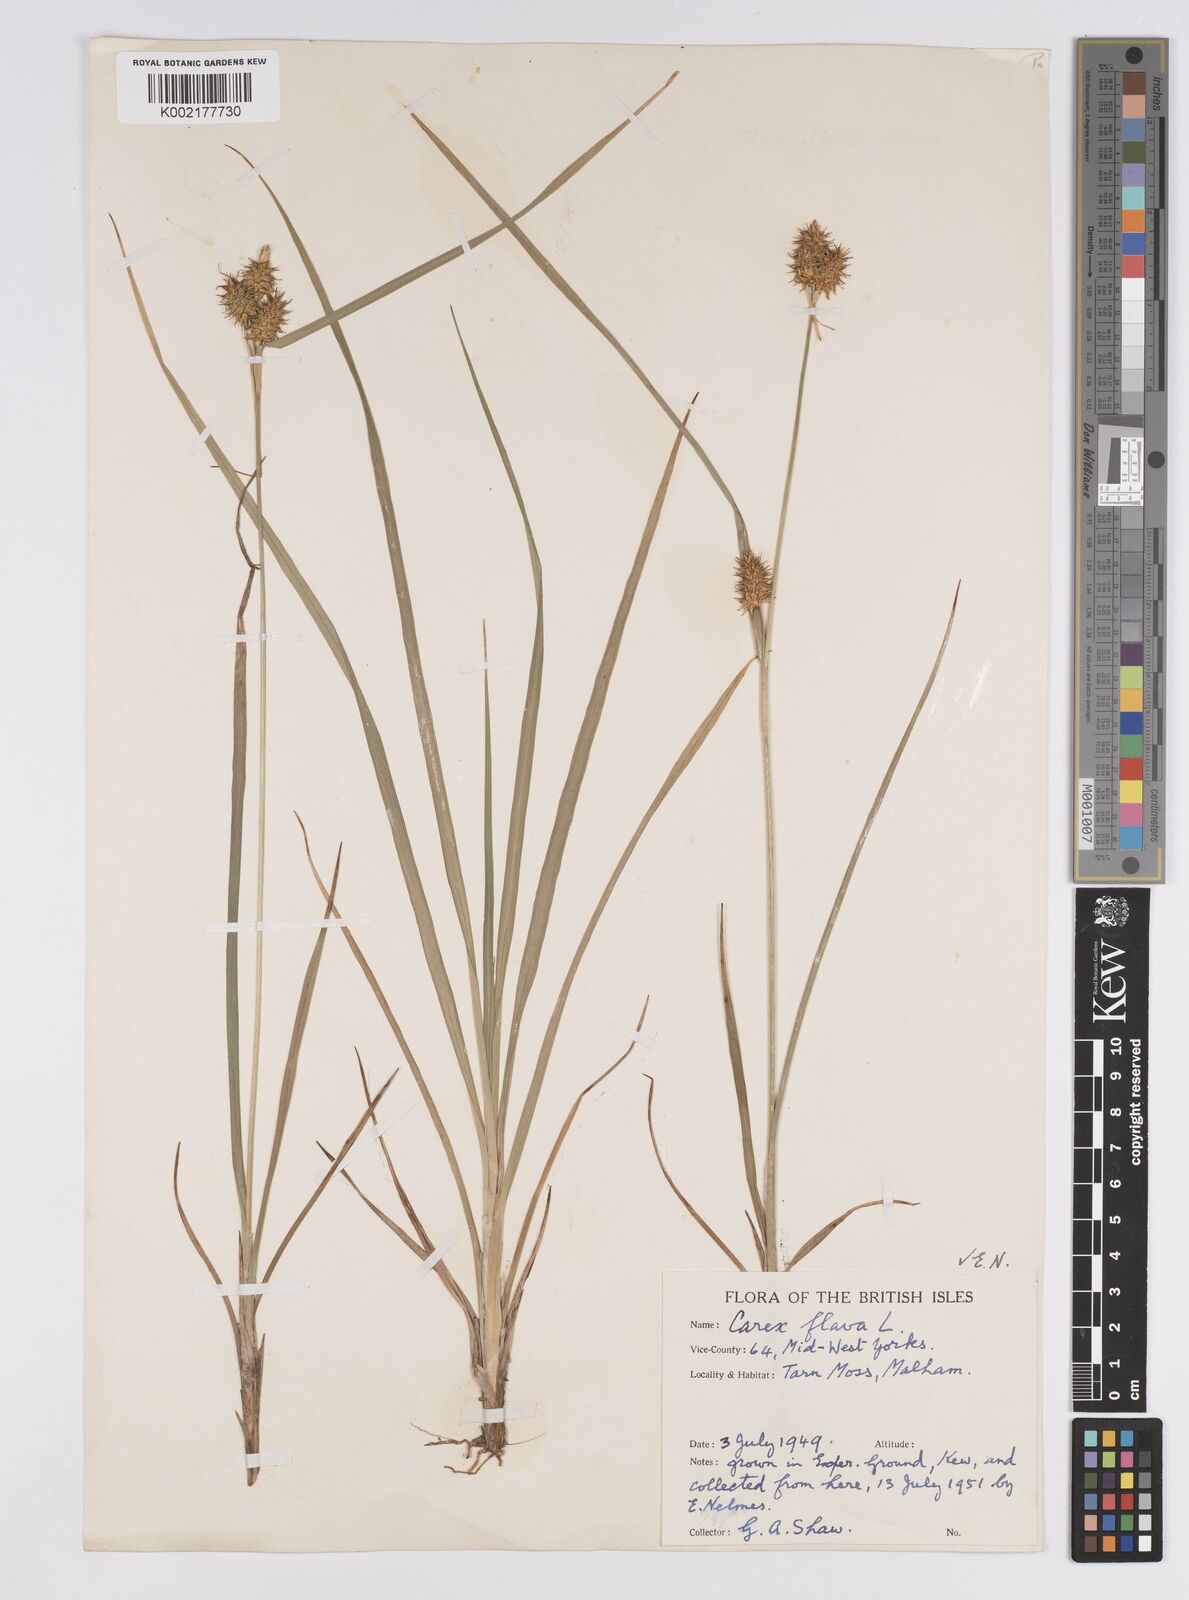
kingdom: Plantae
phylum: Tracheophyta
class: Liliopsida
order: Poales
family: Cyperaceae
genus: Carex
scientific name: Carex flava
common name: Large yellow-sedge
